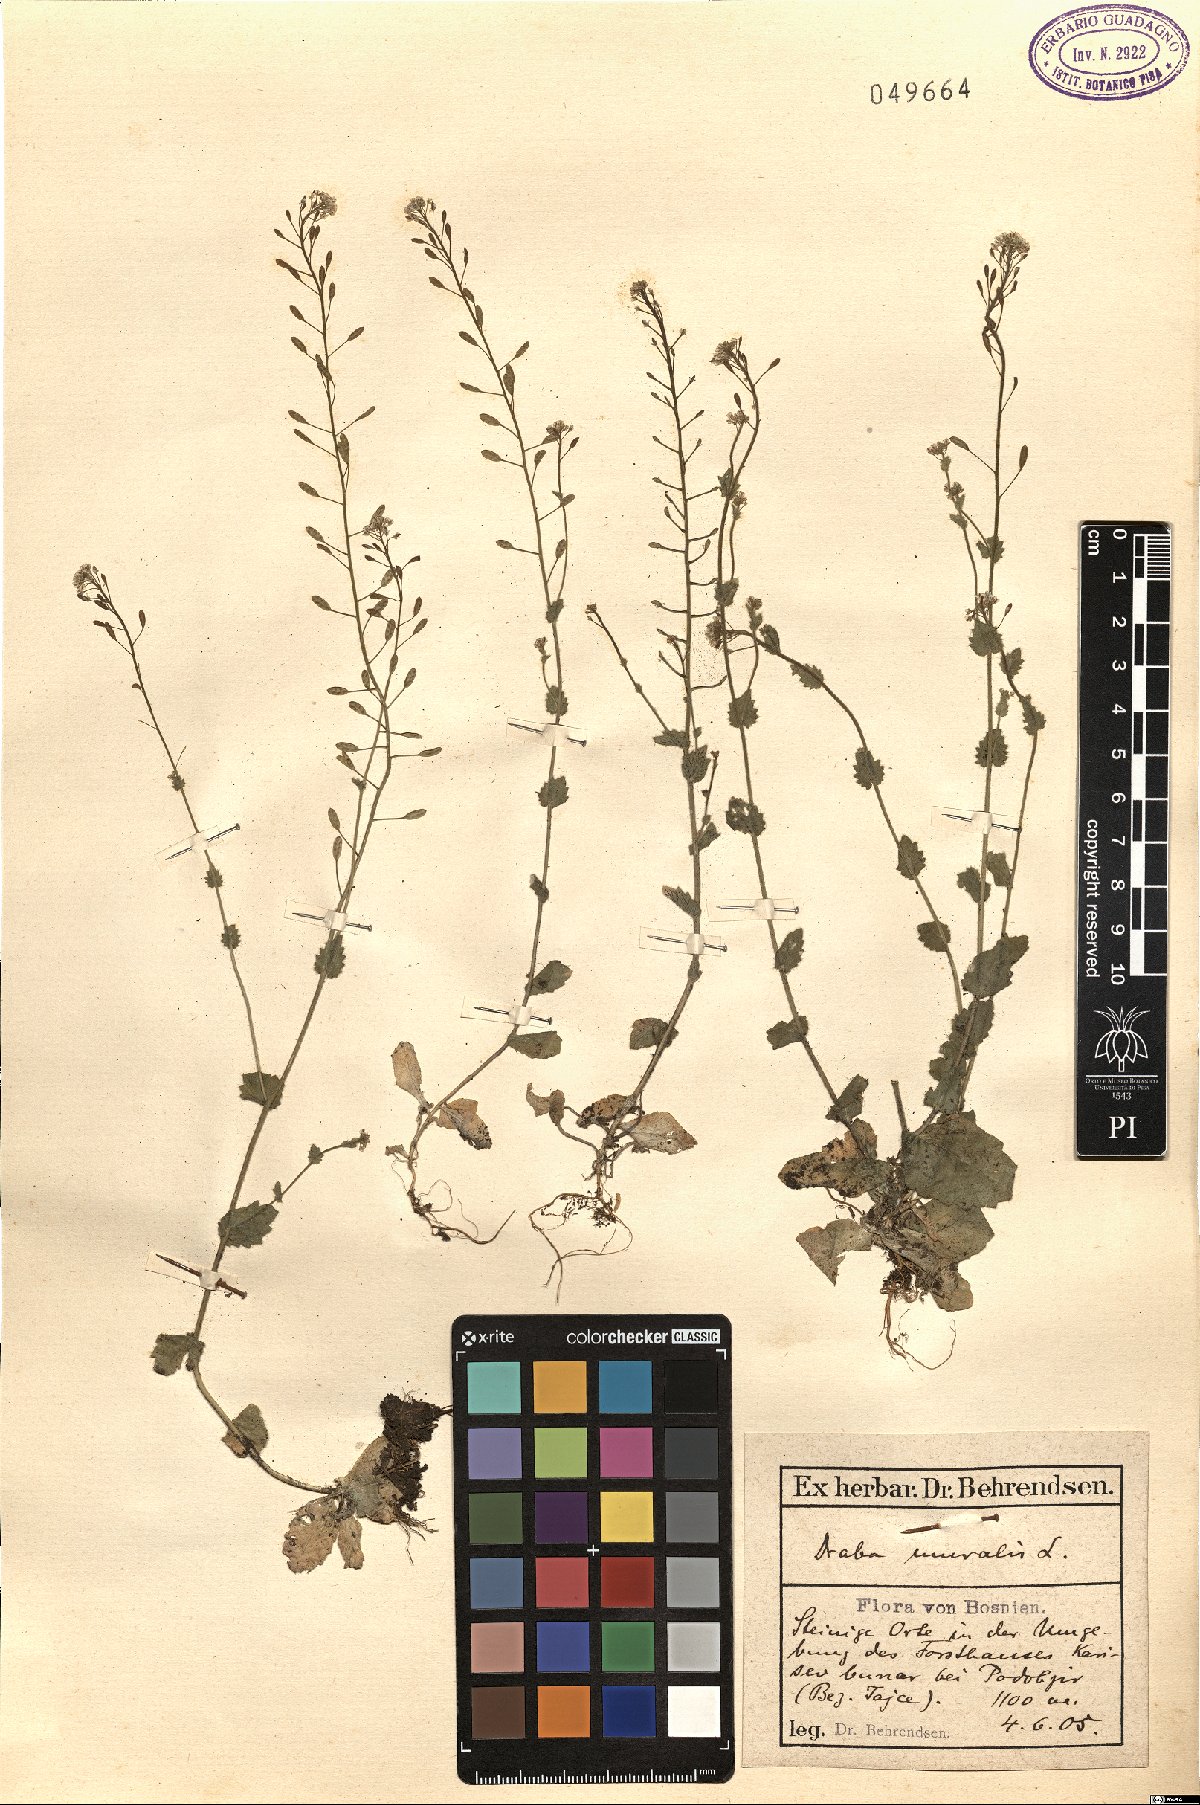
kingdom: Plantae
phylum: Tracheophyta
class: Magnoliopsida
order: Brassicales
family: Brassicaceae
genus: Drabella
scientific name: Drabella muralis
